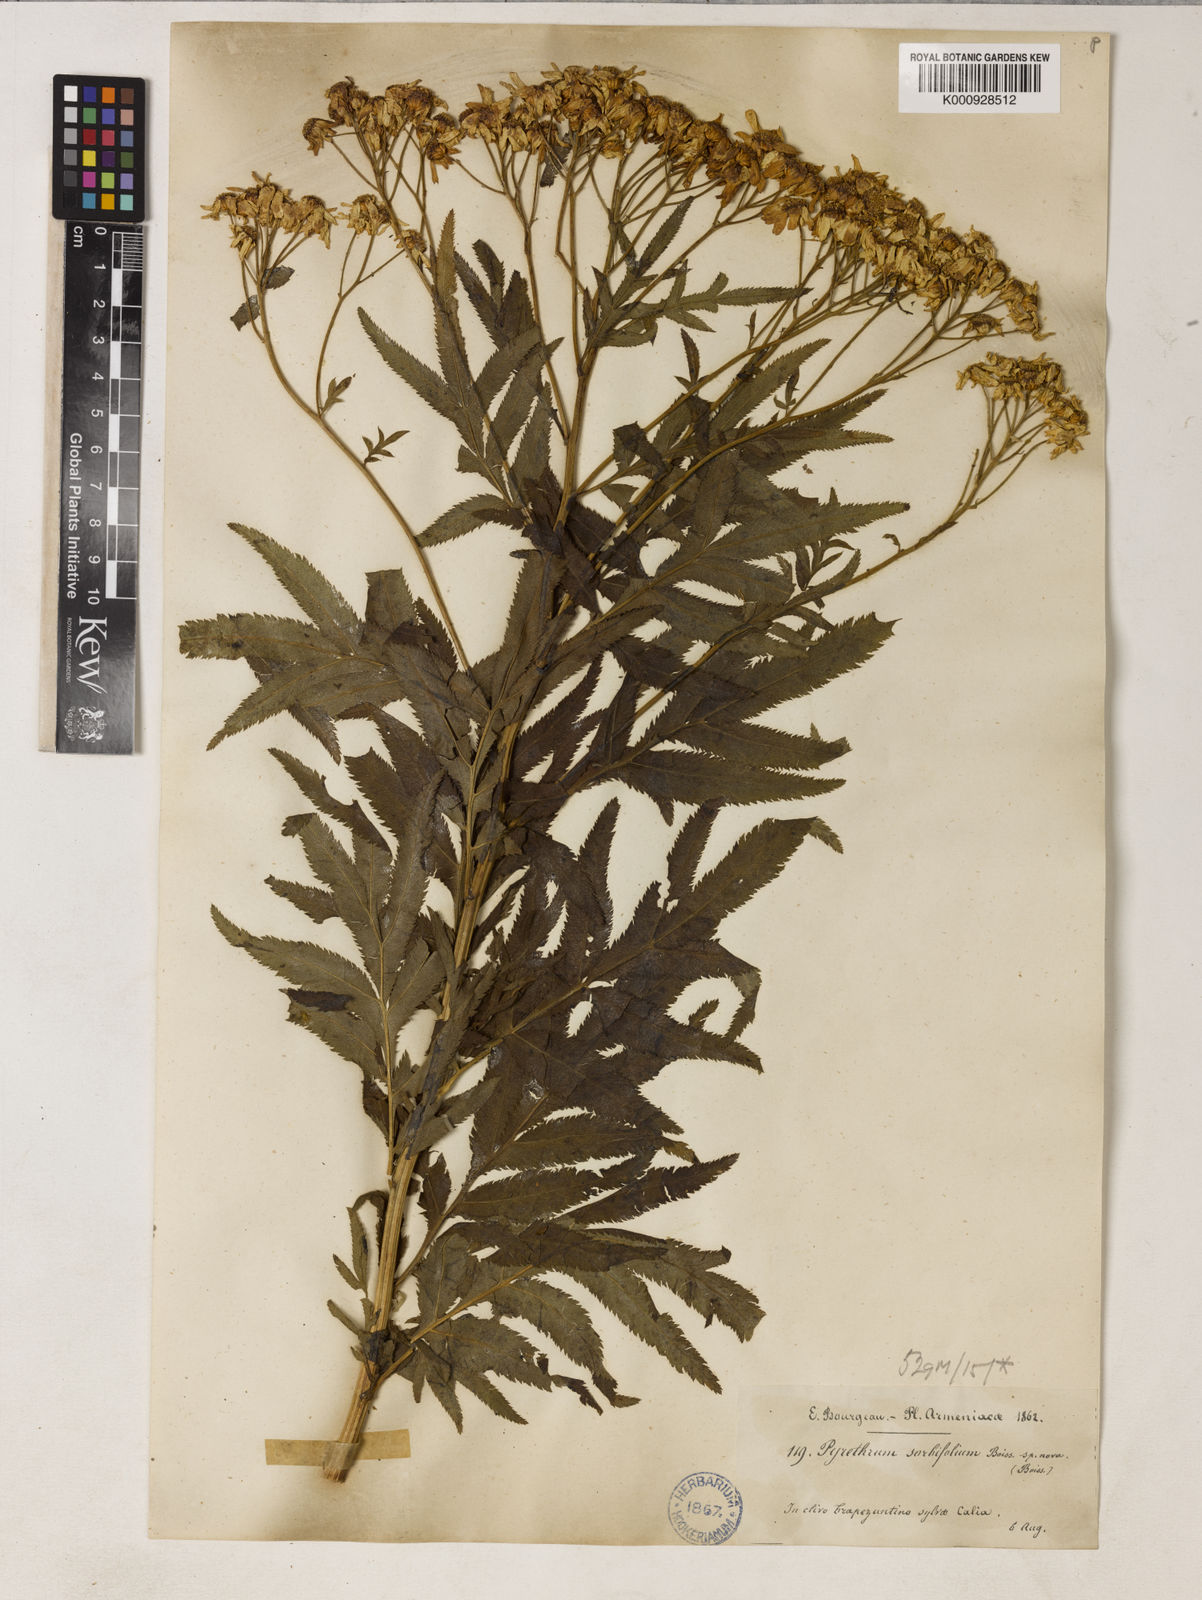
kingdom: Plantae
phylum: Tracheophyta
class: Magnoliopsida
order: Asterales
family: Asteraceae
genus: Tanacetum
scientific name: Tanacetum sorbifolium
